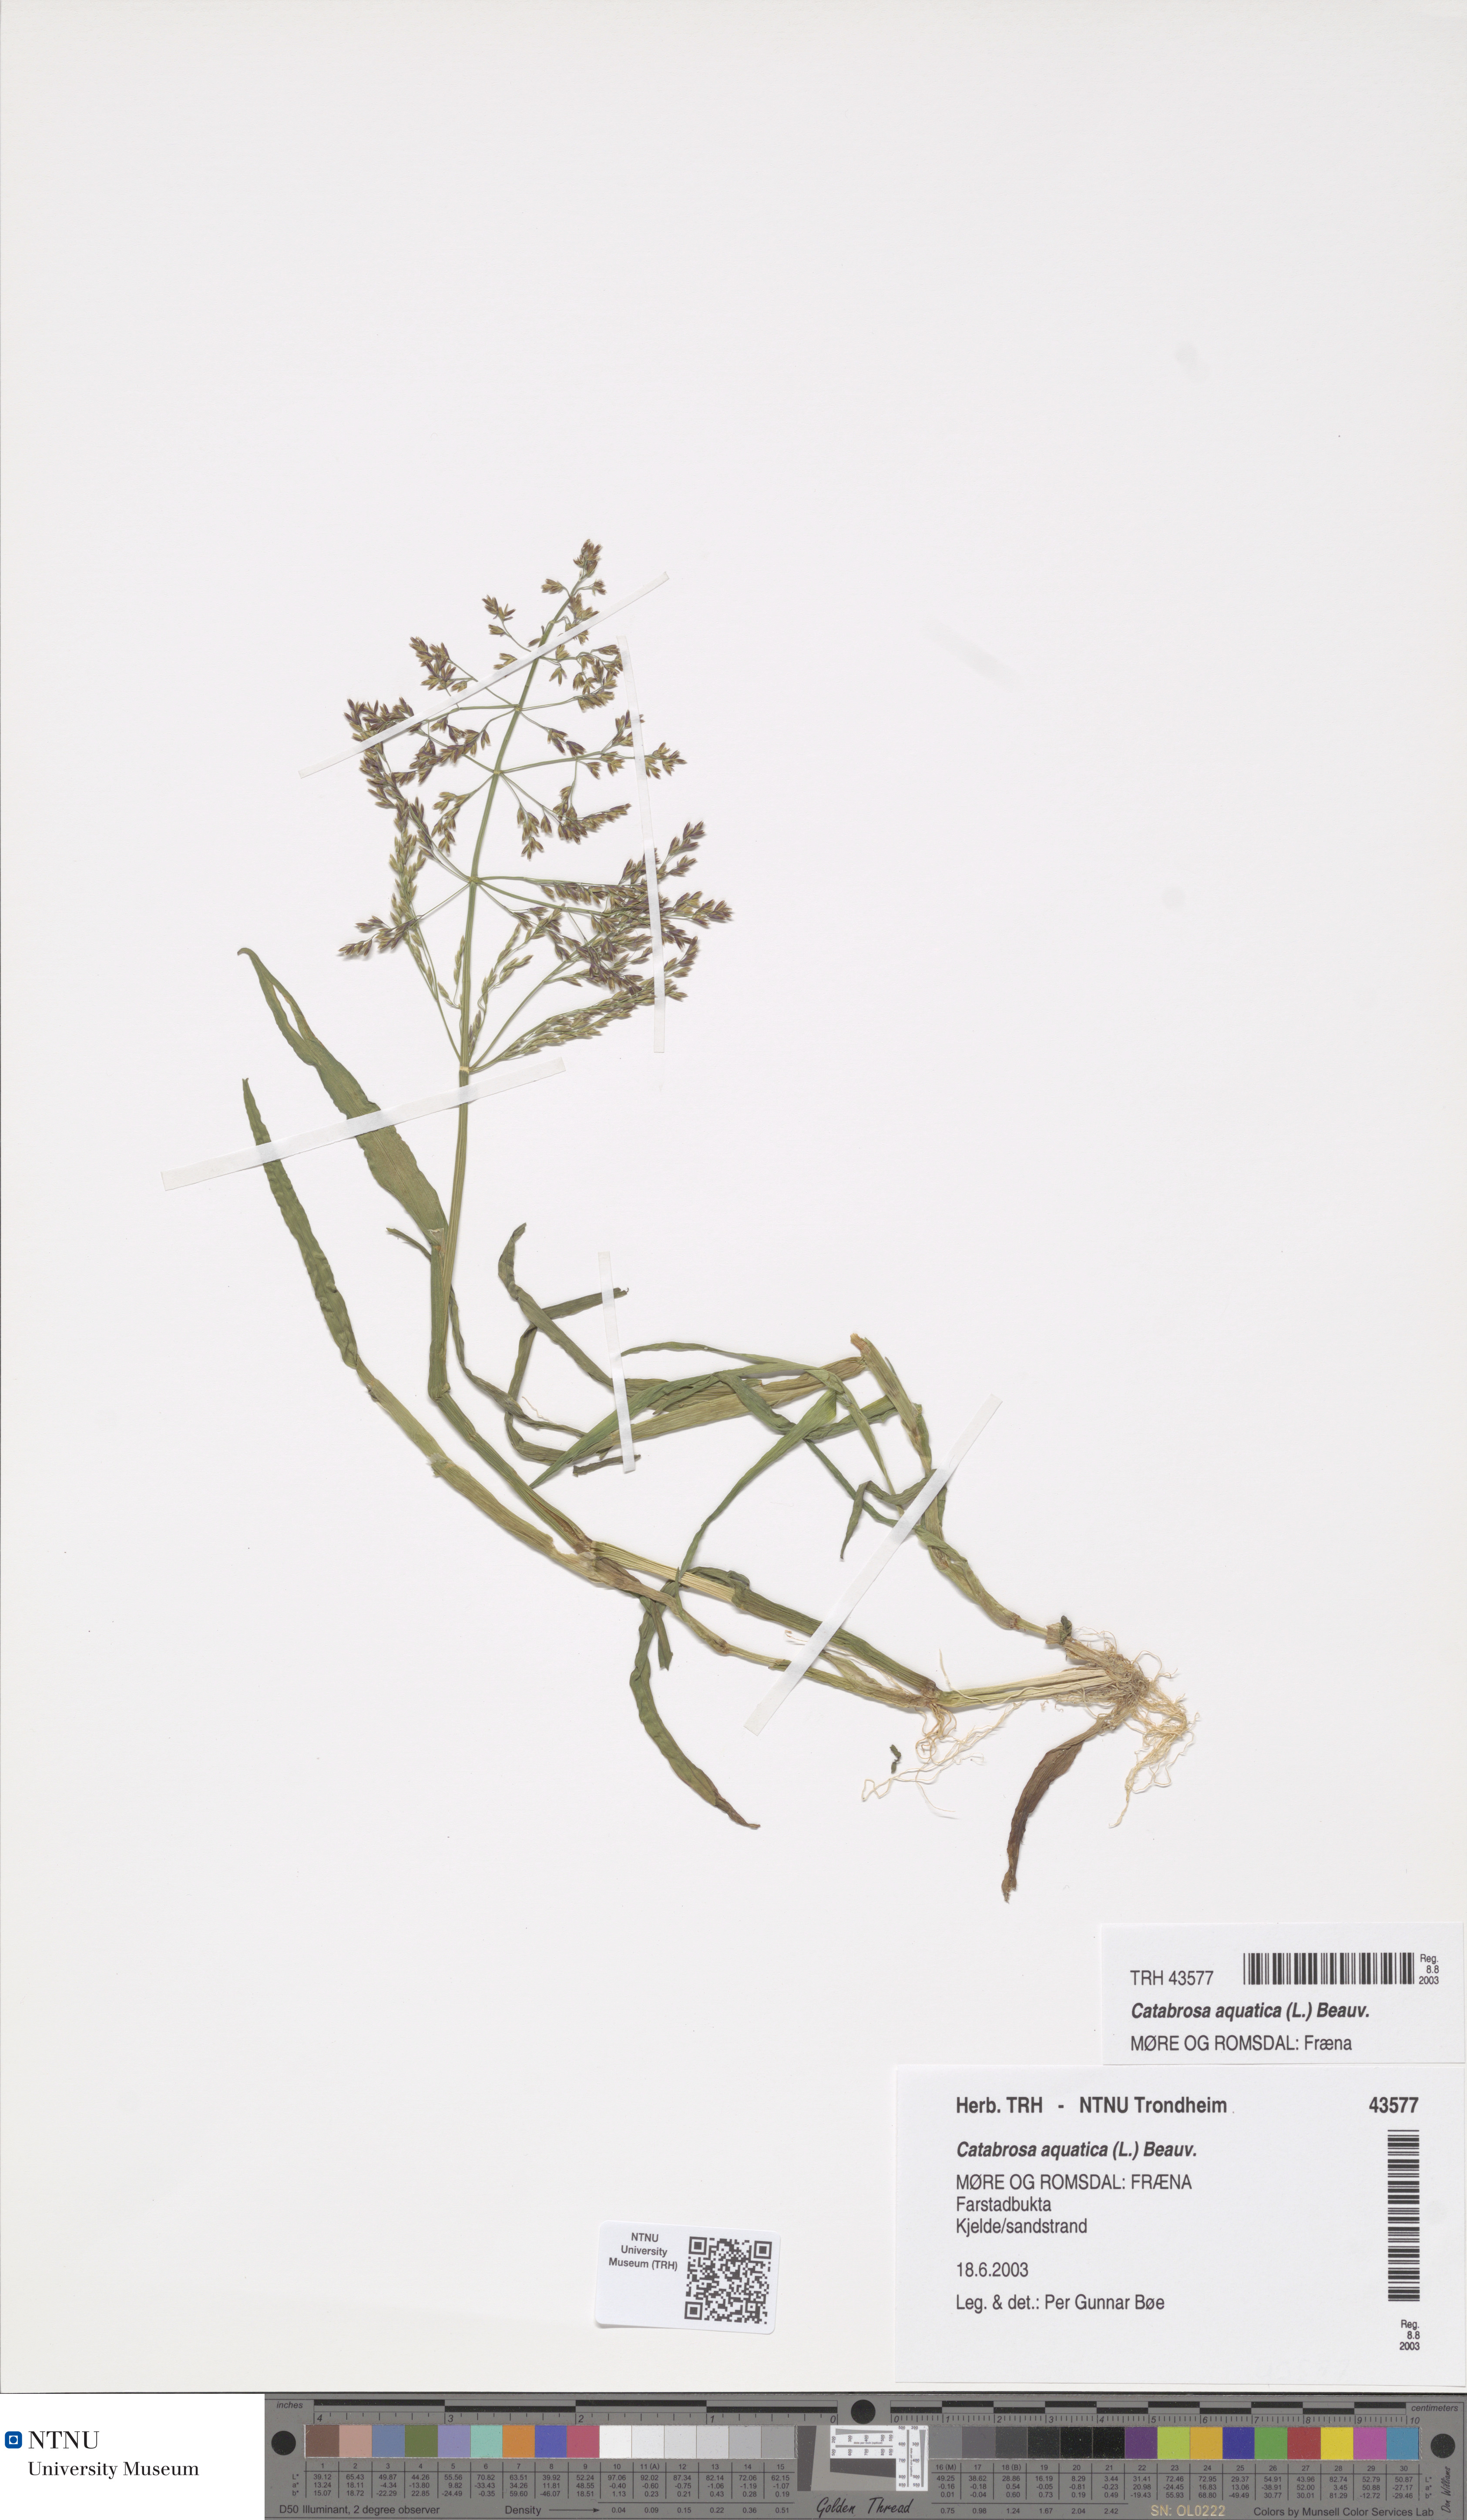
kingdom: Plantae
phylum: Tracheophyta
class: Liliopsida
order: Poales
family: Poaceae
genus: Catabrosa
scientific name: Catabrosa aquatica
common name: Whorl-grass
